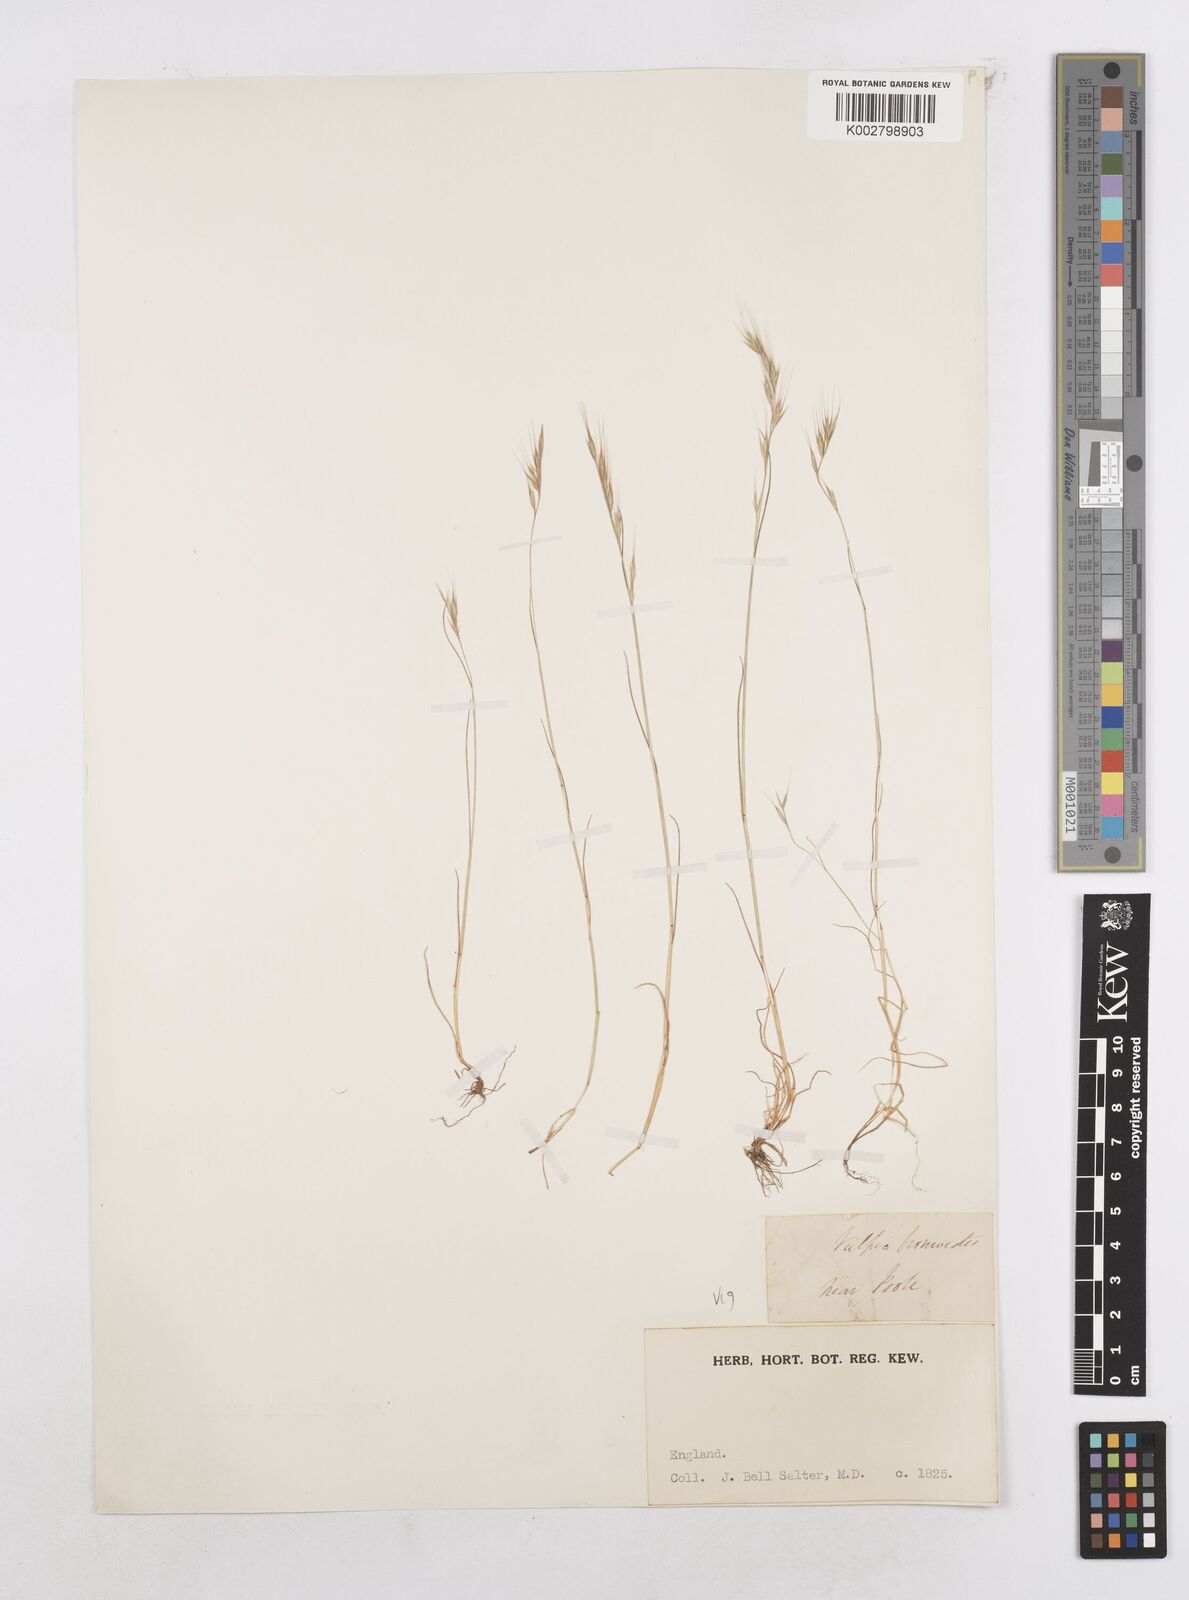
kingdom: Plantae
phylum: Tracheophyta
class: Liliopsida
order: Poales
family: Poaceae
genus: Festuca
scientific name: Festuca bromoides
